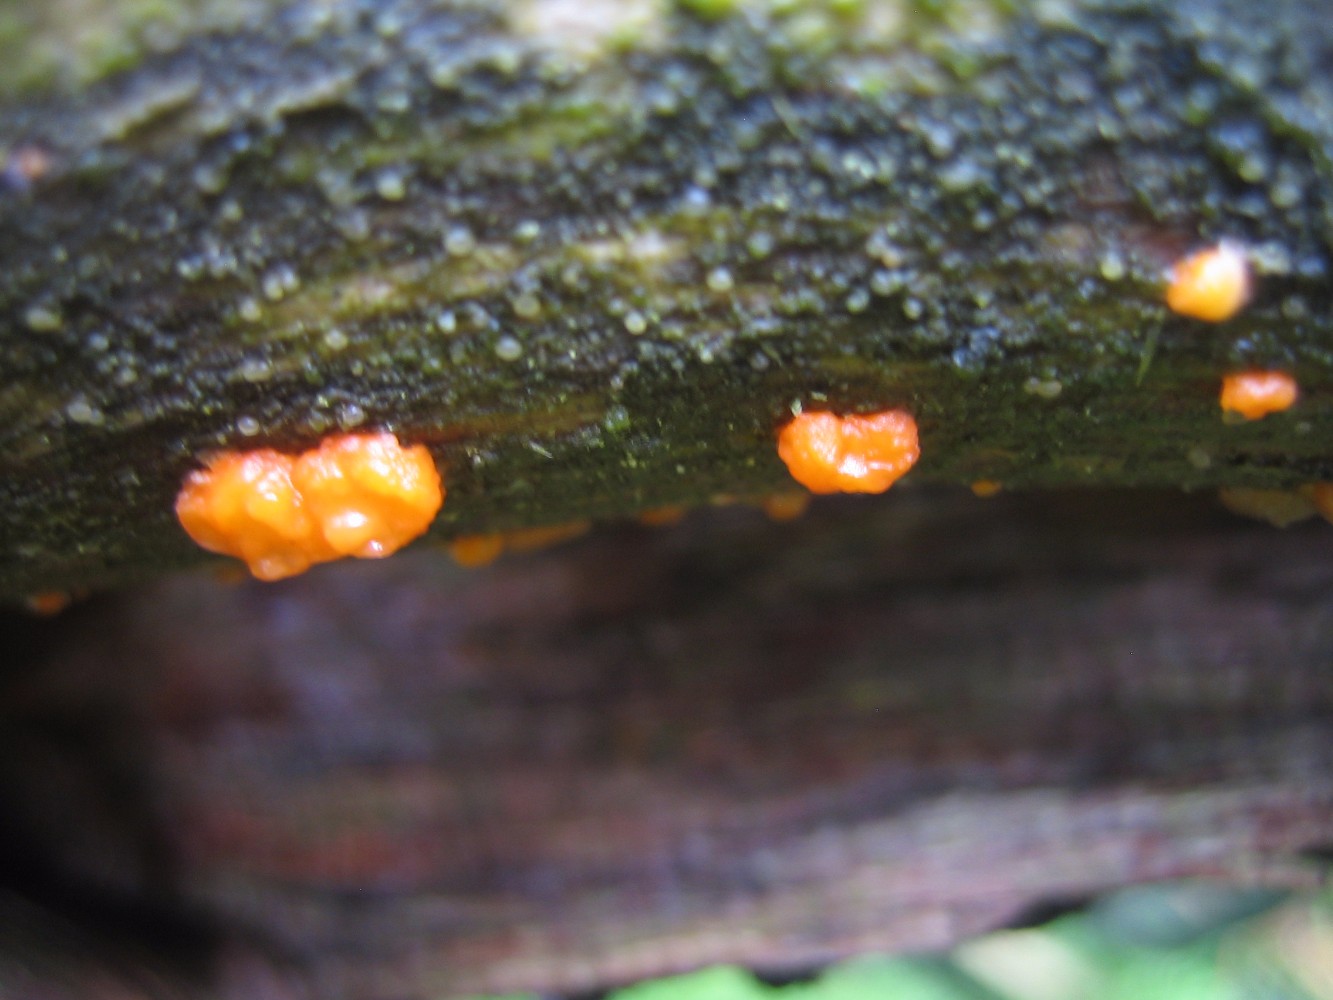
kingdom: Fungi
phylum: Basidiomycota
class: Dacrymycetes
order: Dacrymycetales
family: Dacrymycetaceae
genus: Dacrymyces
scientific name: Dacrymyces stillatus
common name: almindelig tåresvamp
